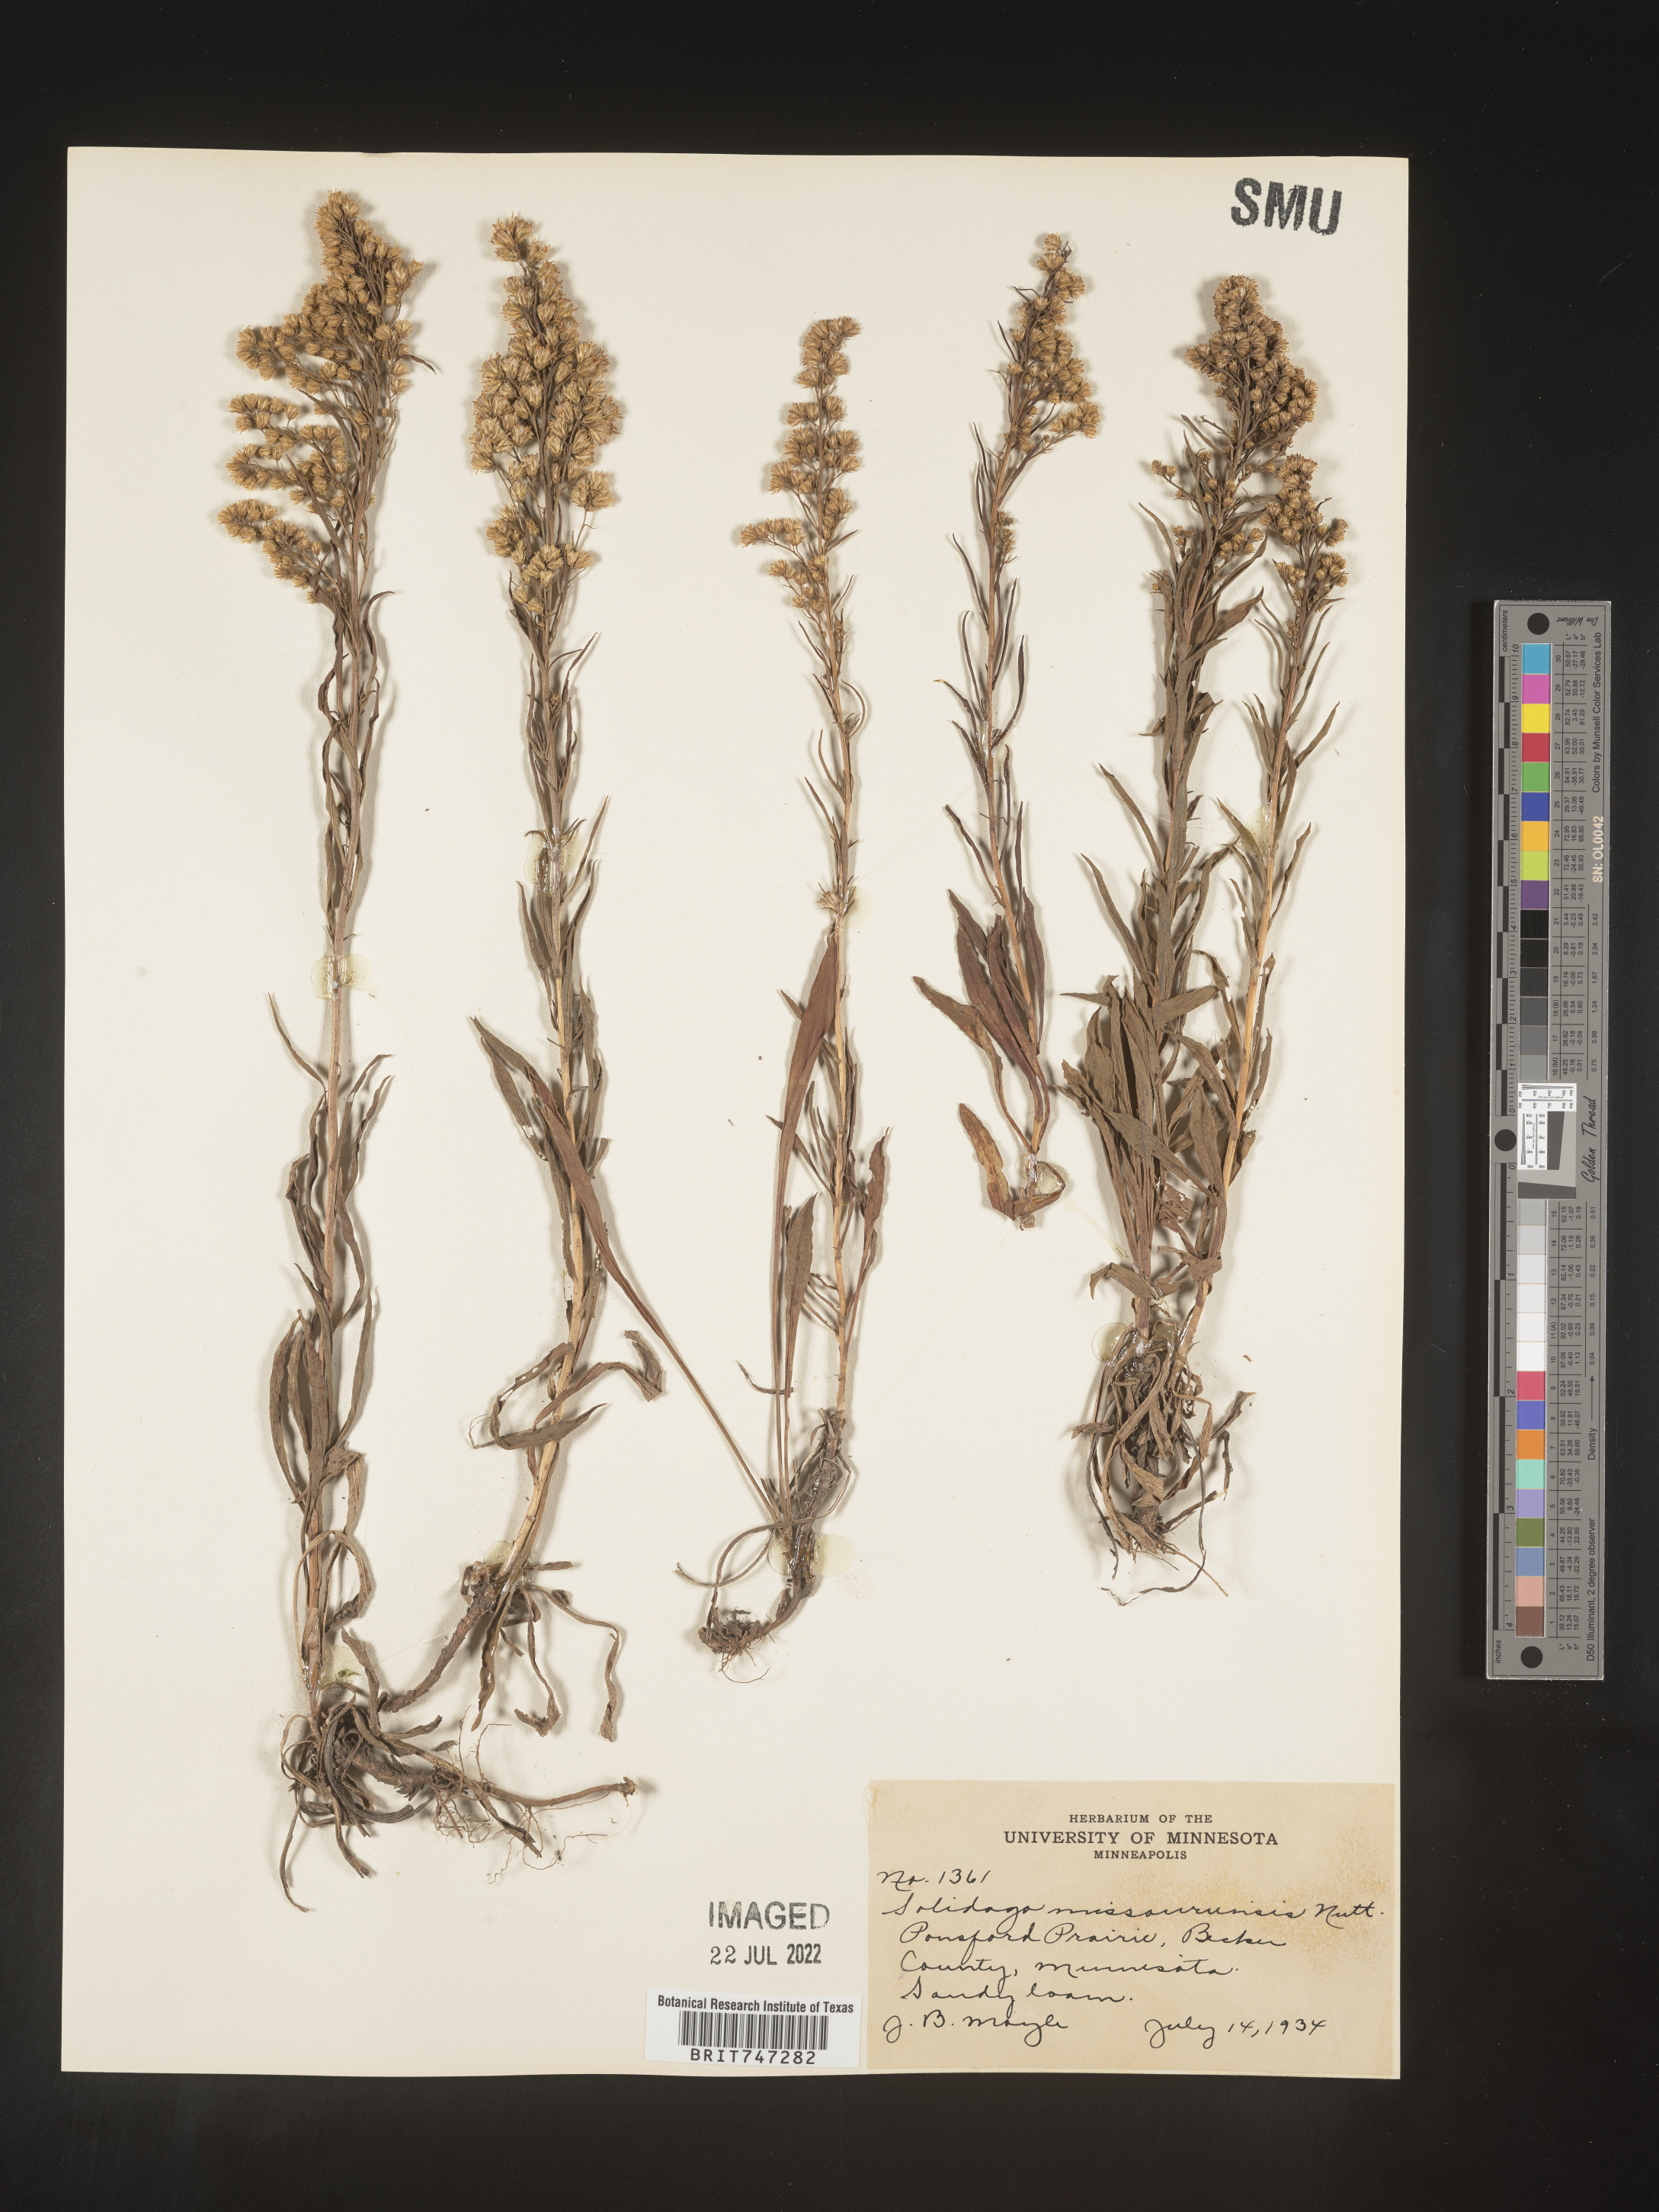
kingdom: Plantae
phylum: Tracheophyta
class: Magnoliopsida
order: Asterales
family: Asteraceae
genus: Solidago
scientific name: Solidago missouriensis
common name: Prairie goldenrod
